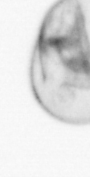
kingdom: Chromista
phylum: Myzozoa
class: Dinophyceae
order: Noctilucales
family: Noctilucaceae
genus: Noctiluca
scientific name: Noctiluca scintillans
